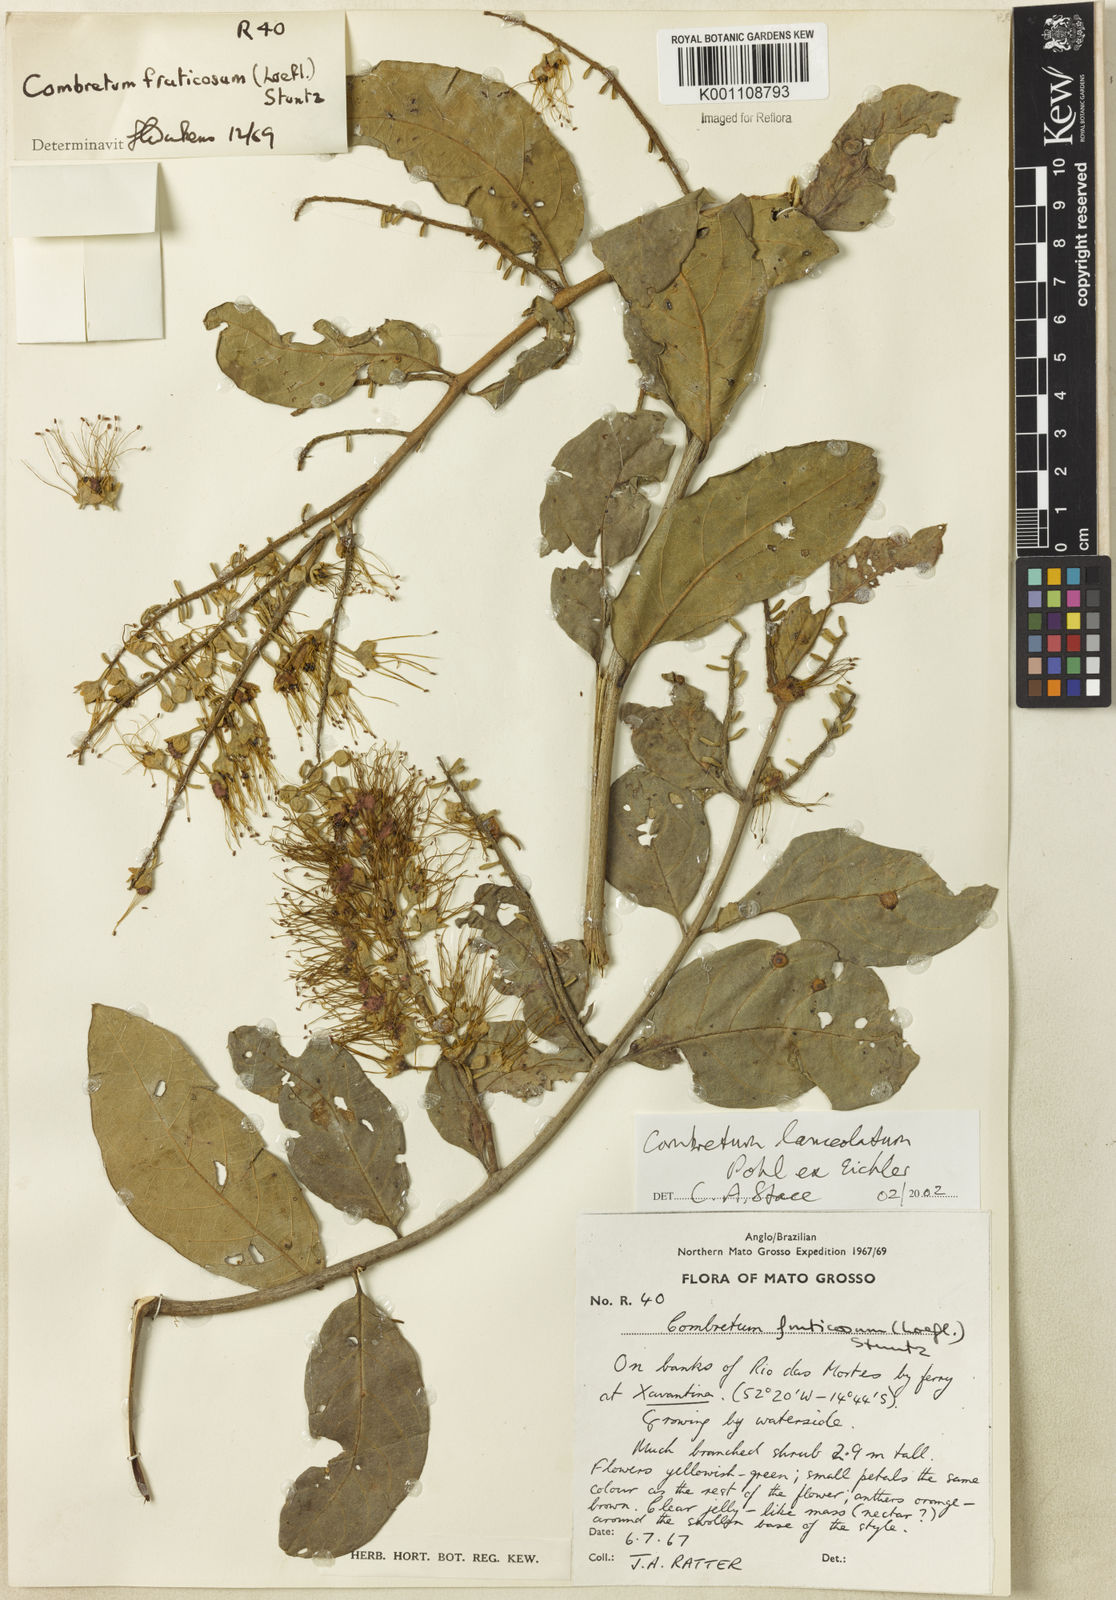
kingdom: Plantae
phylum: Tracheophyta
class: Magnoliopsida
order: Myrtales
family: Combretaceae
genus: Combretum
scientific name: Combretum lanceolatum
